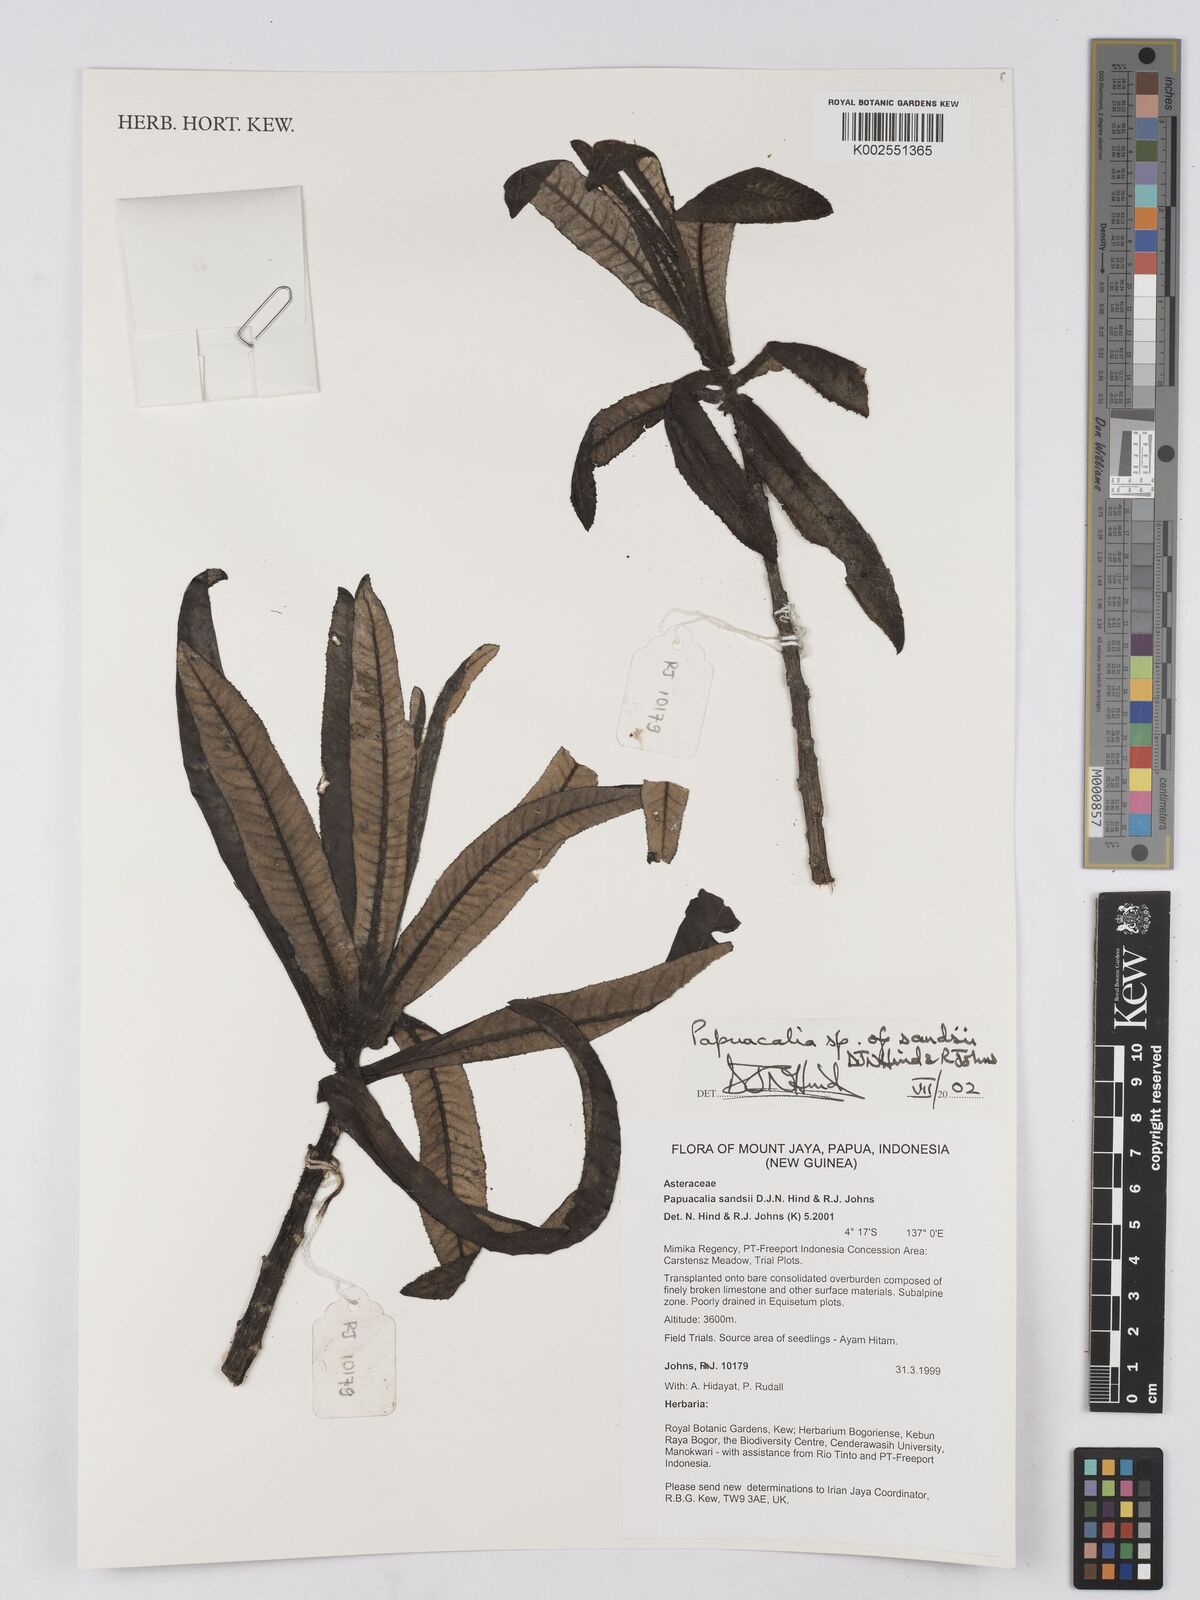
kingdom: Plantae
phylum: Tracheophyta
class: Magnoliopsida
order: Asterales
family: Asteraceae
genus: Papuacalia
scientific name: Papuacalia sandsii
